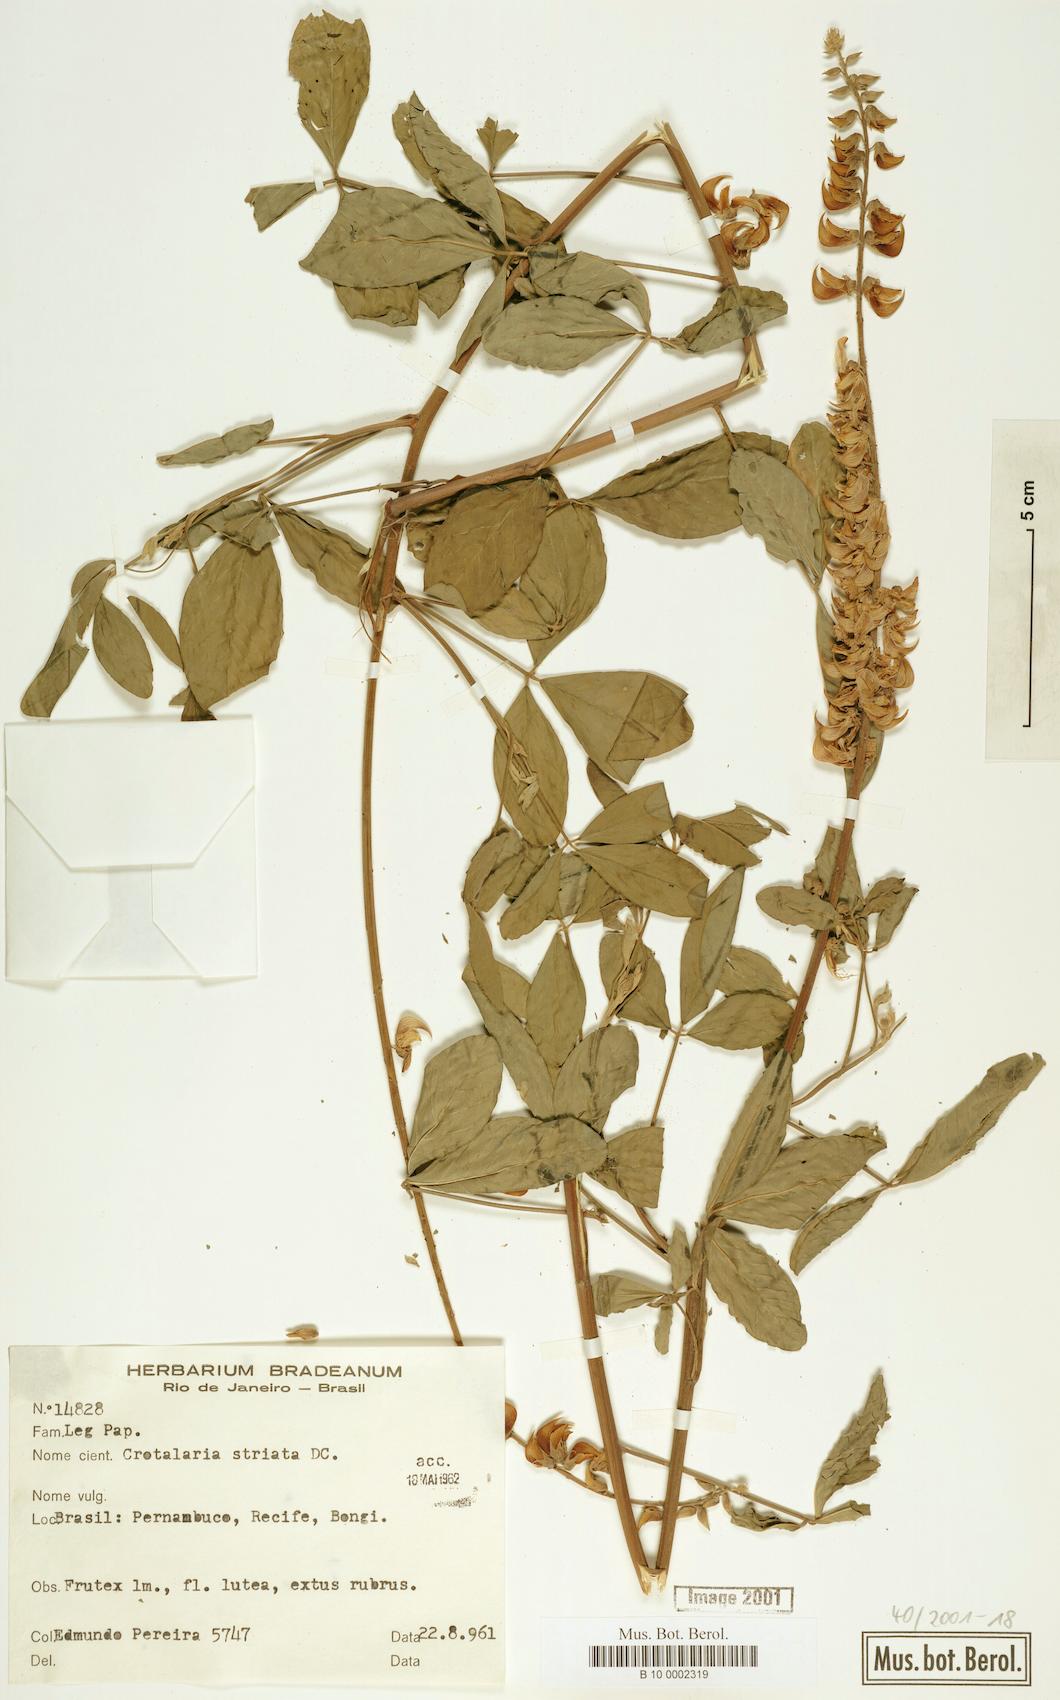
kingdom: Plantae
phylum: Tracheophyta
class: Magnoliopsida
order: Fabales
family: Fabaceae
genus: Crotalaria
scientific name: Crotalaria pallida
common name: Smooth rattlebox
